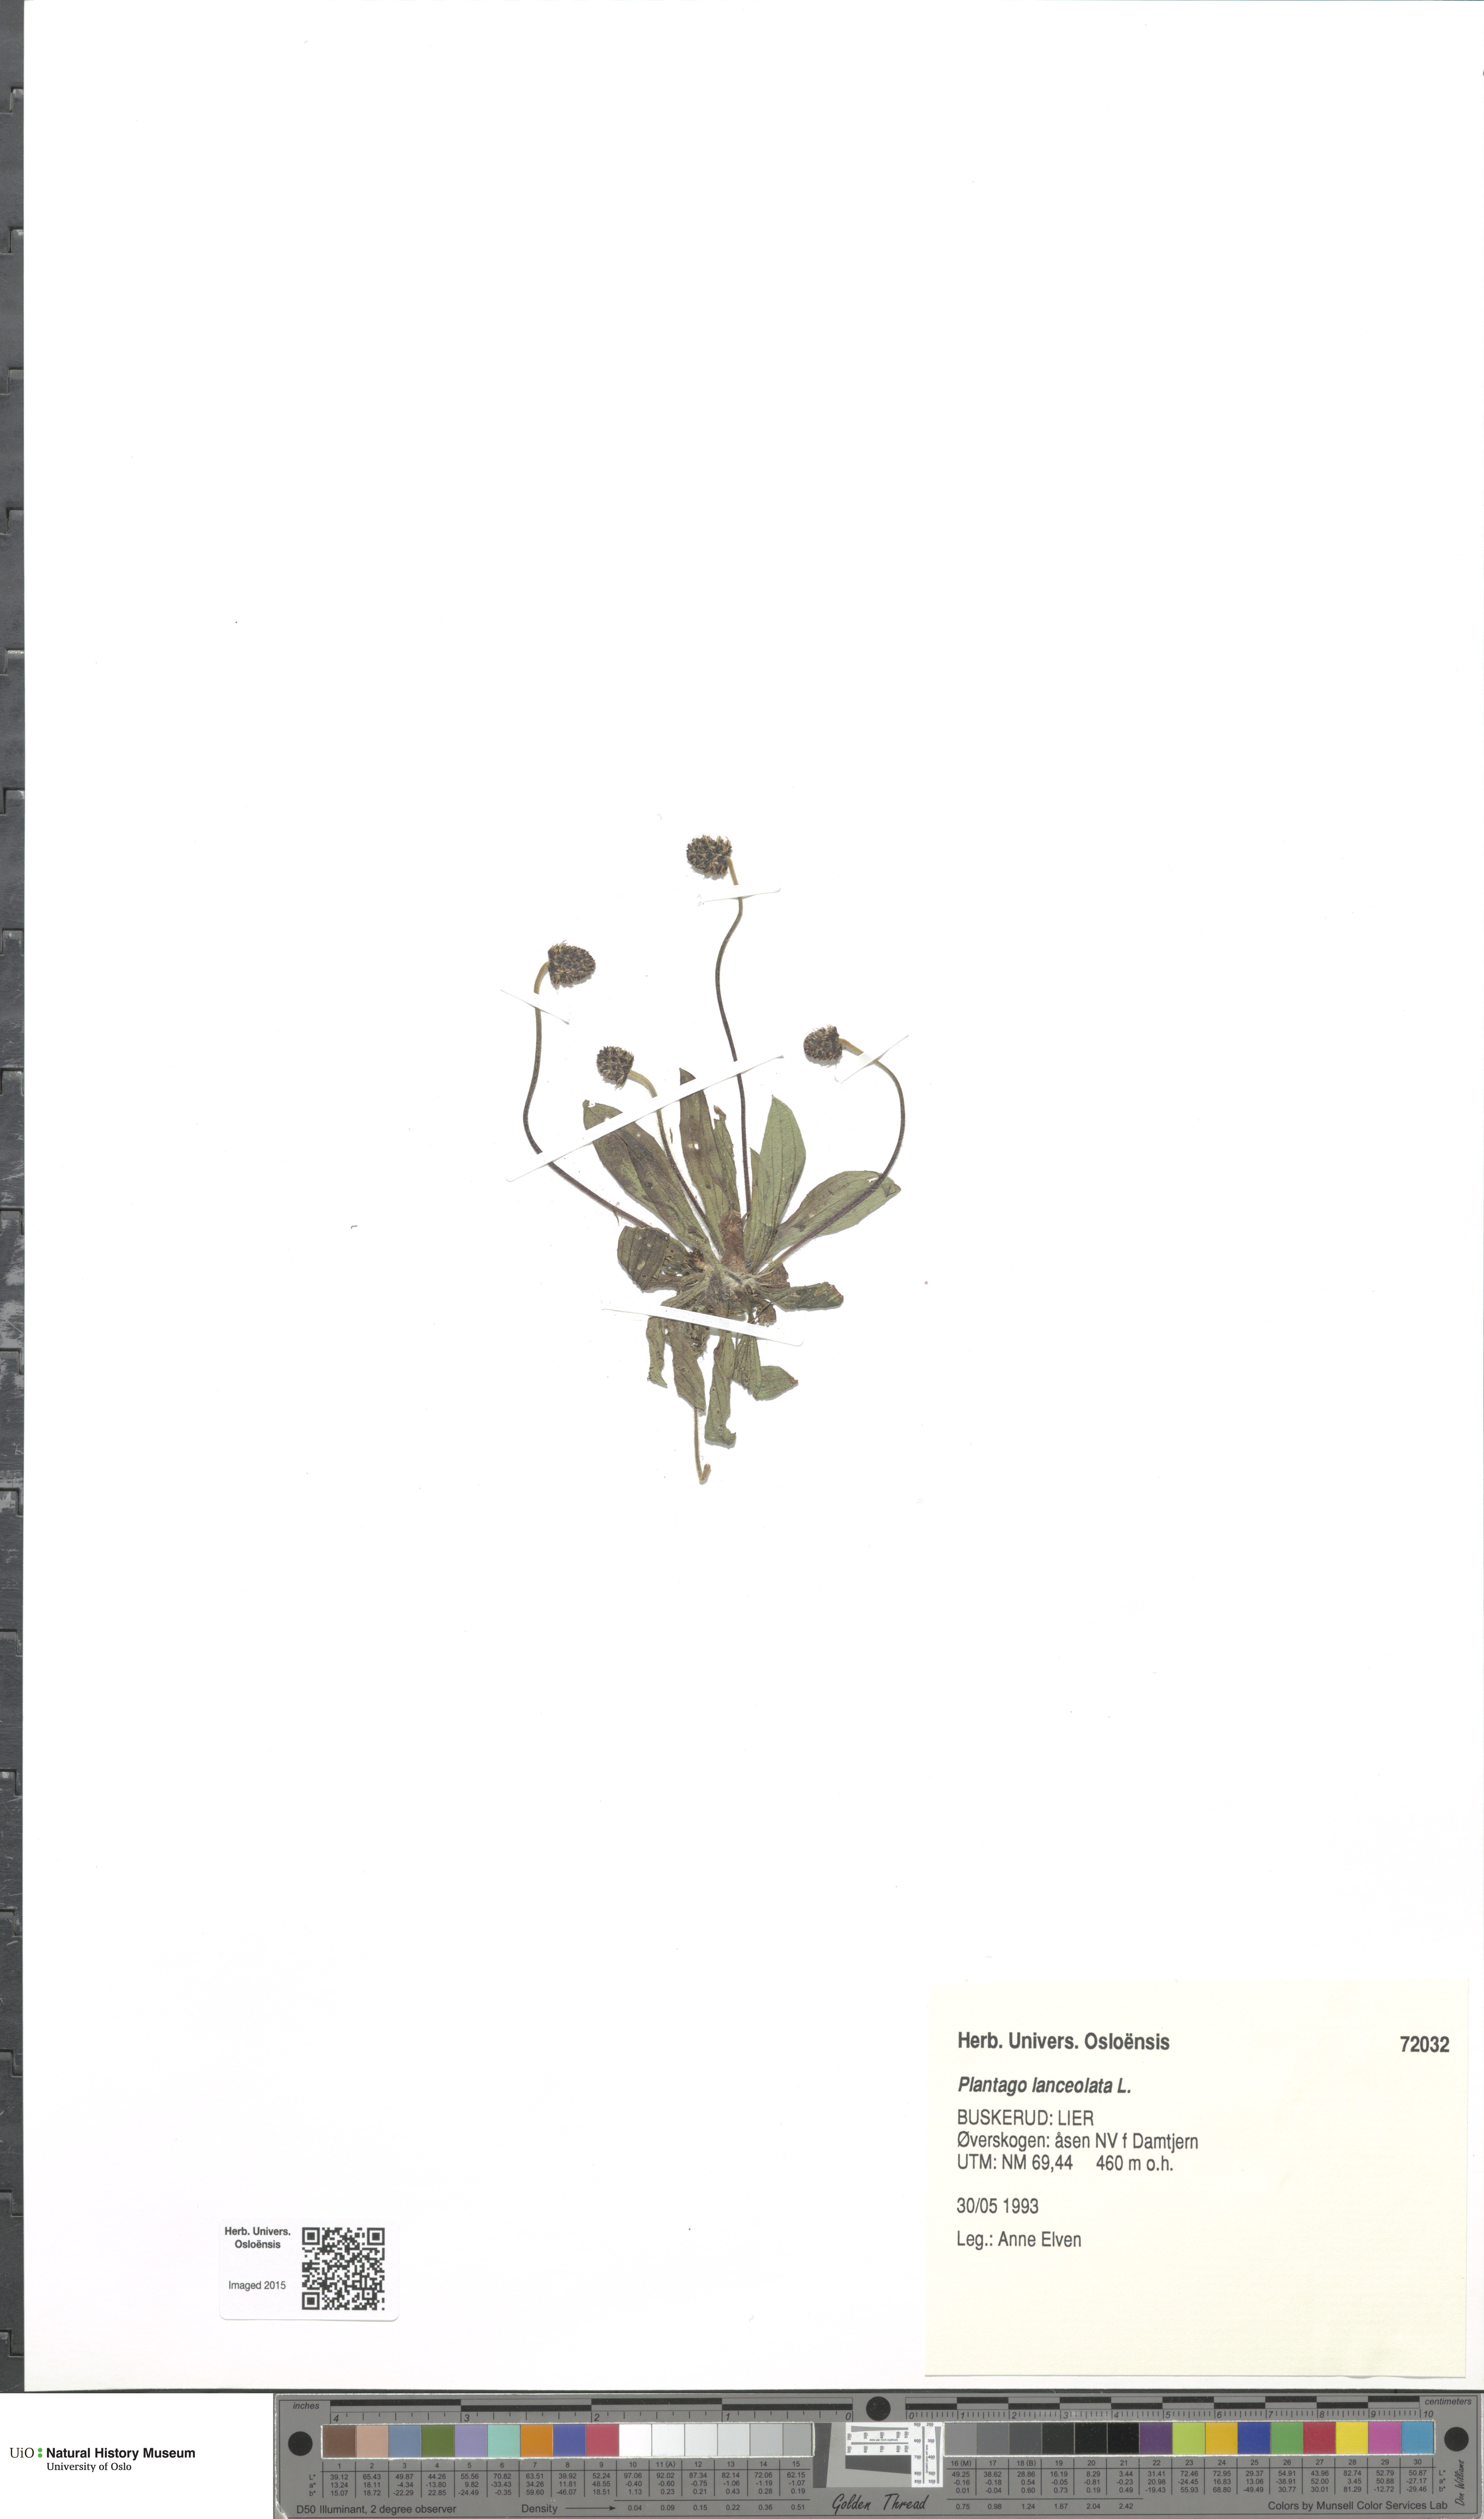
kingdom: Plantae
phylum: Tracheophyta
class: Magnoliopsida
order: Lamiales
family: Plantaginaceae
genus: Plantago
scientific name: Plantago lanceolata
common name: Ribwort plantain
